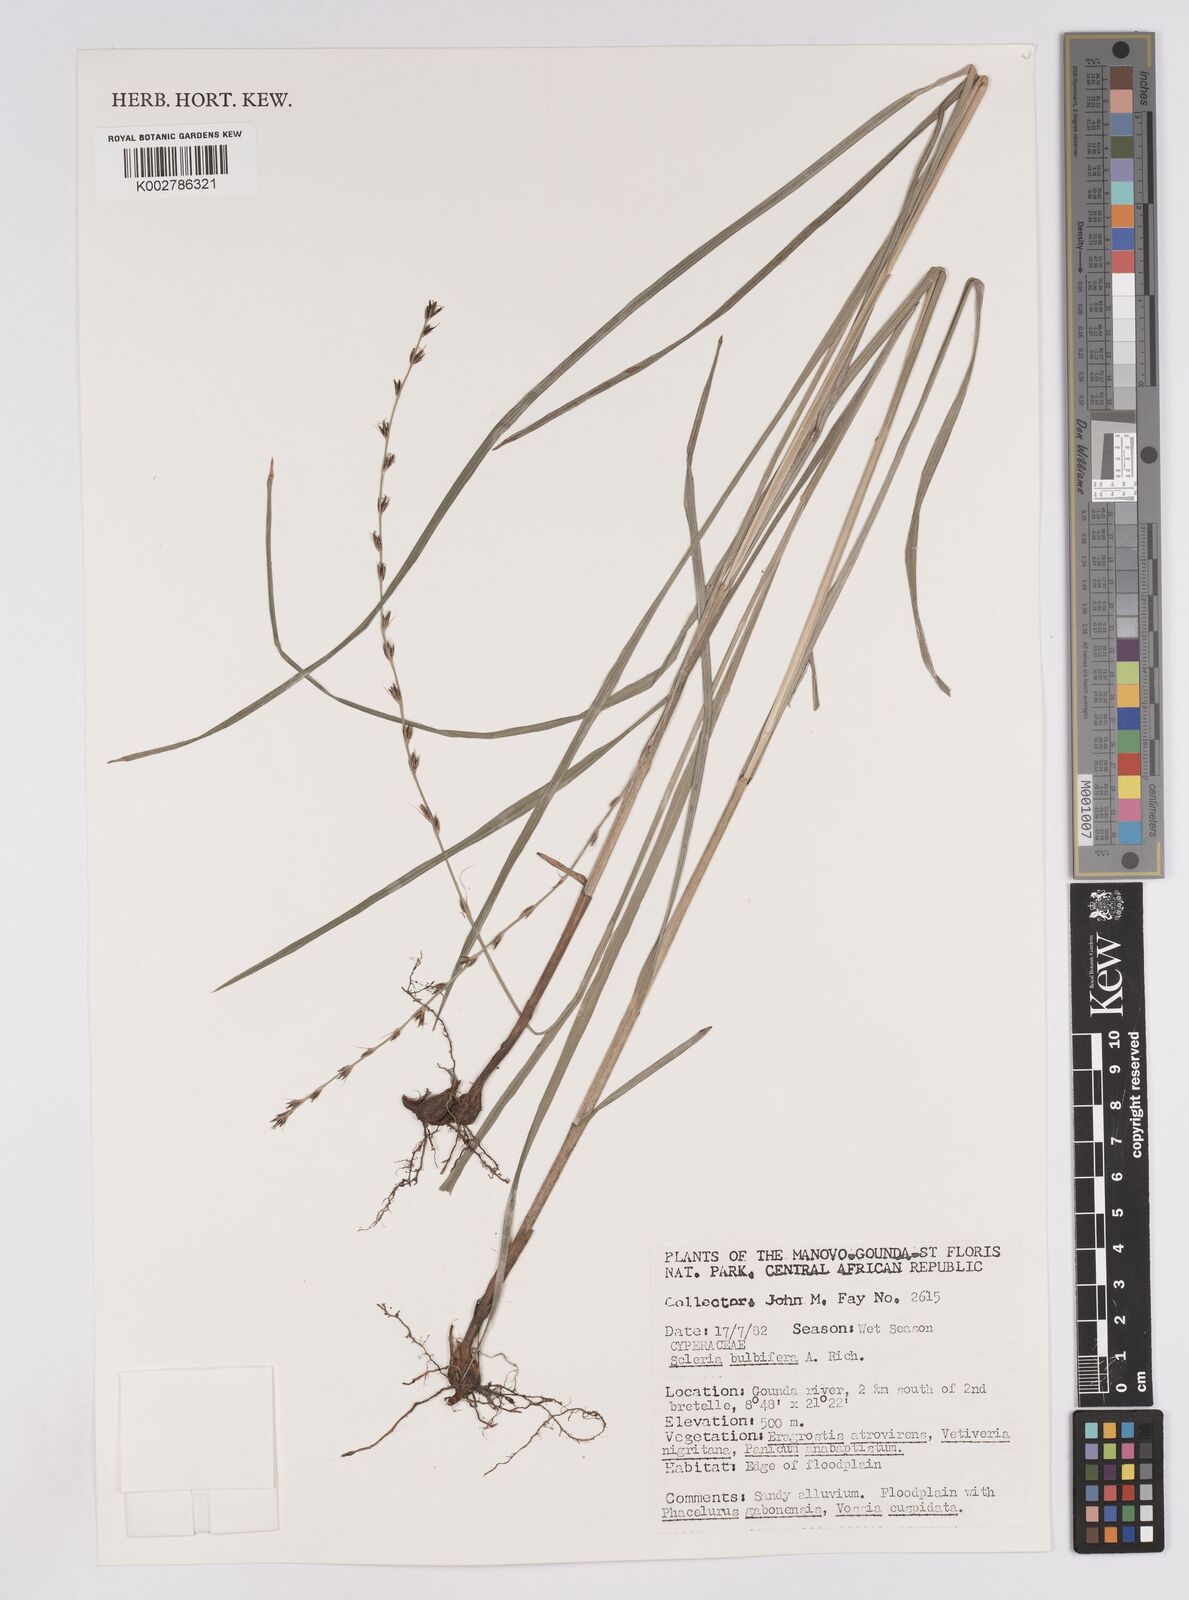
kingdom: Plantae
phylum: Tracheophyta
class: Liliopsida
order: Poales
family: Cyperaceae
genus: Scleria
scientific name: Scleria bulbifera
